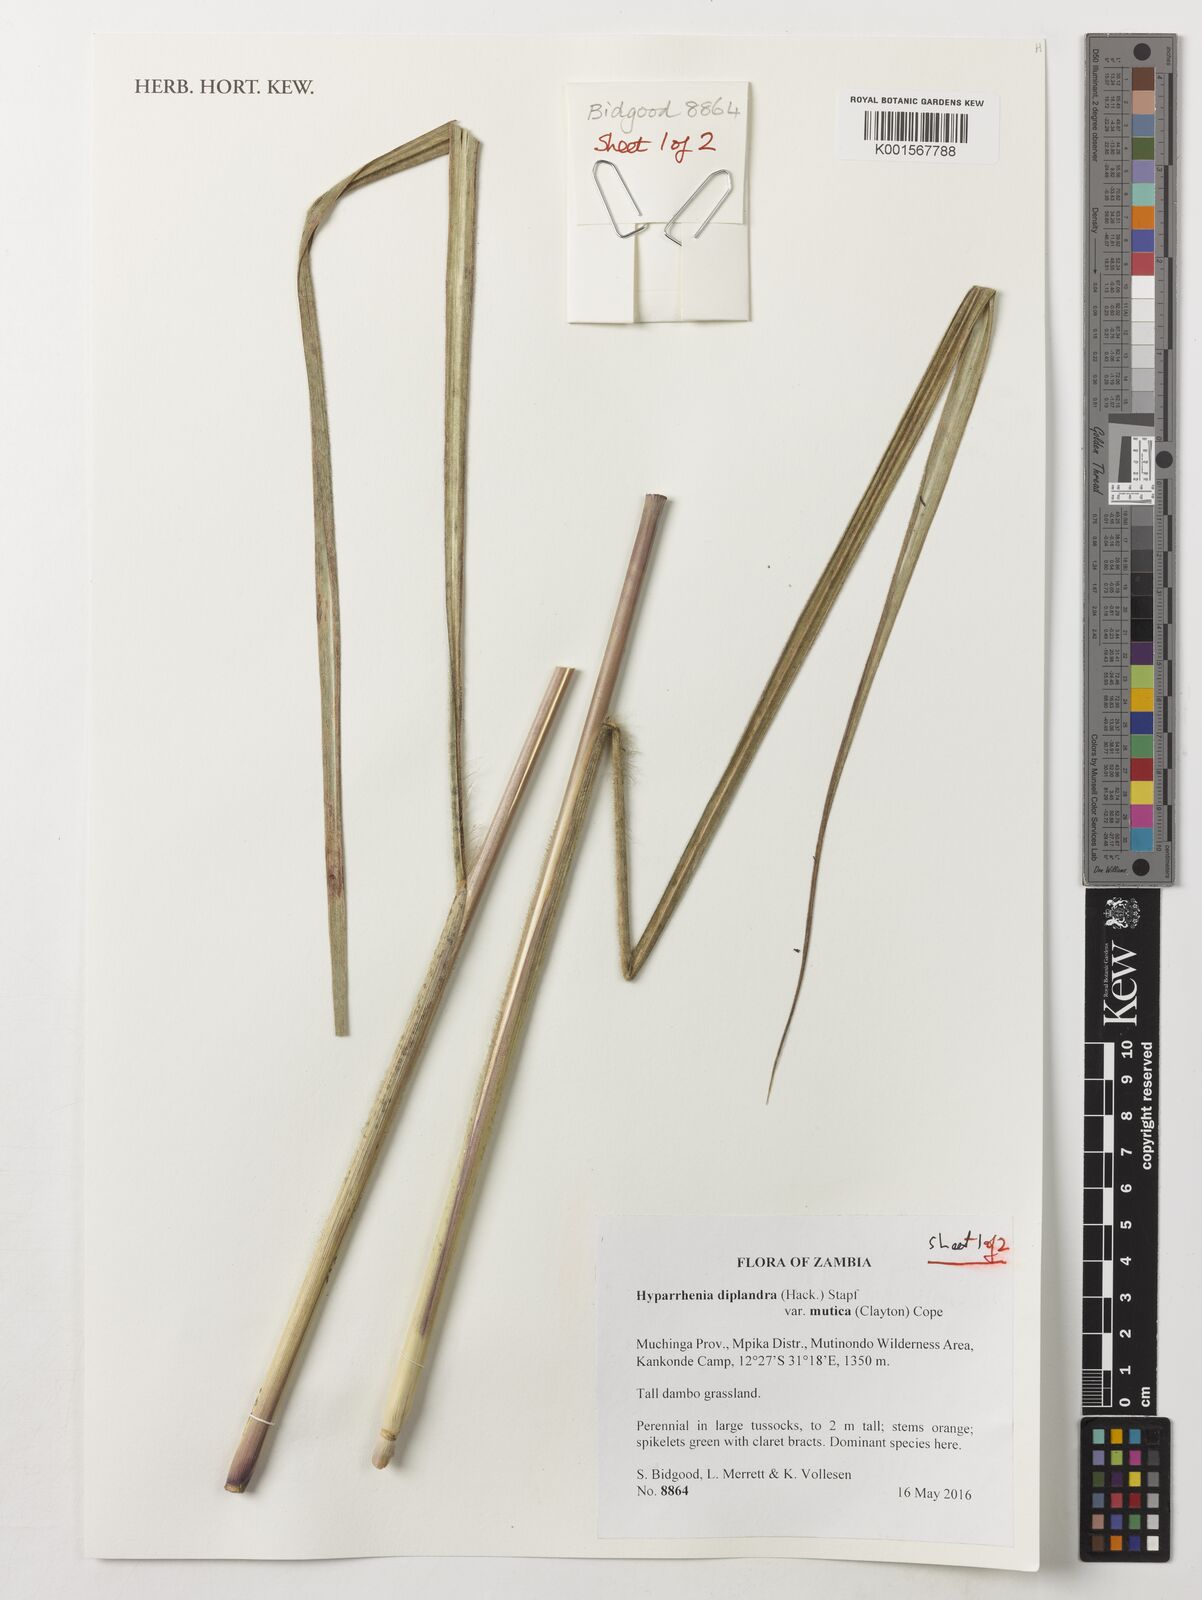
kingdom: Plantae
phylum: Tracheophyta
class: Liliopsida
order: Poales
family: Poaceae
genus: Hyparrhenia
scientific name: Hyparrhenia diplandra
